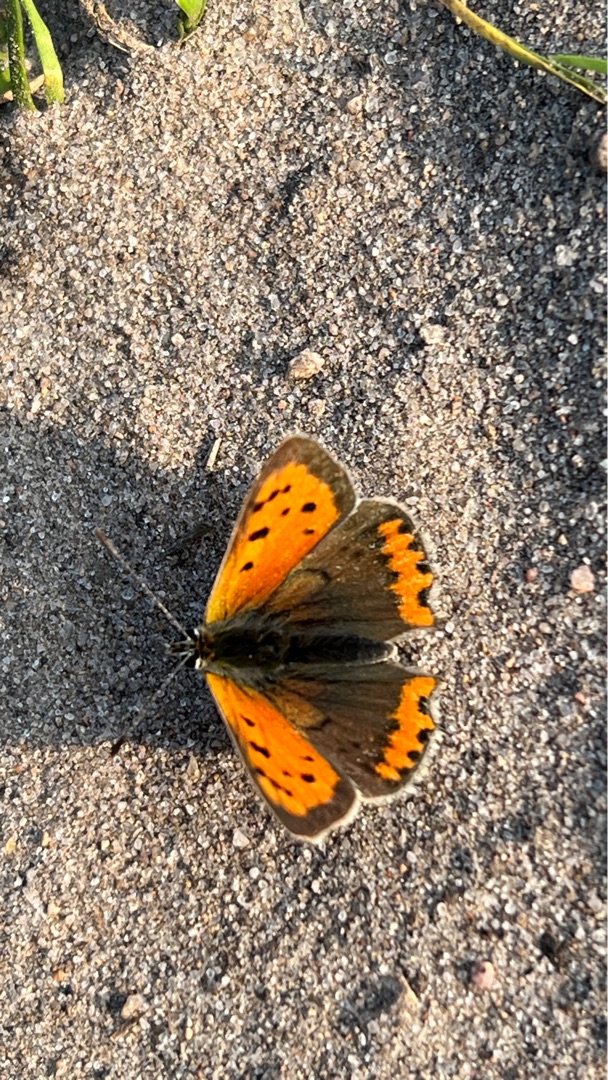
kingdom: Animalia
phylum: Arthropoda
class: Insecta
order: Lepidoptera
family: Lycaenidae
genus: Lycaena
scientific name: Lycaena phlaeas
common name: Lille ildfugl
